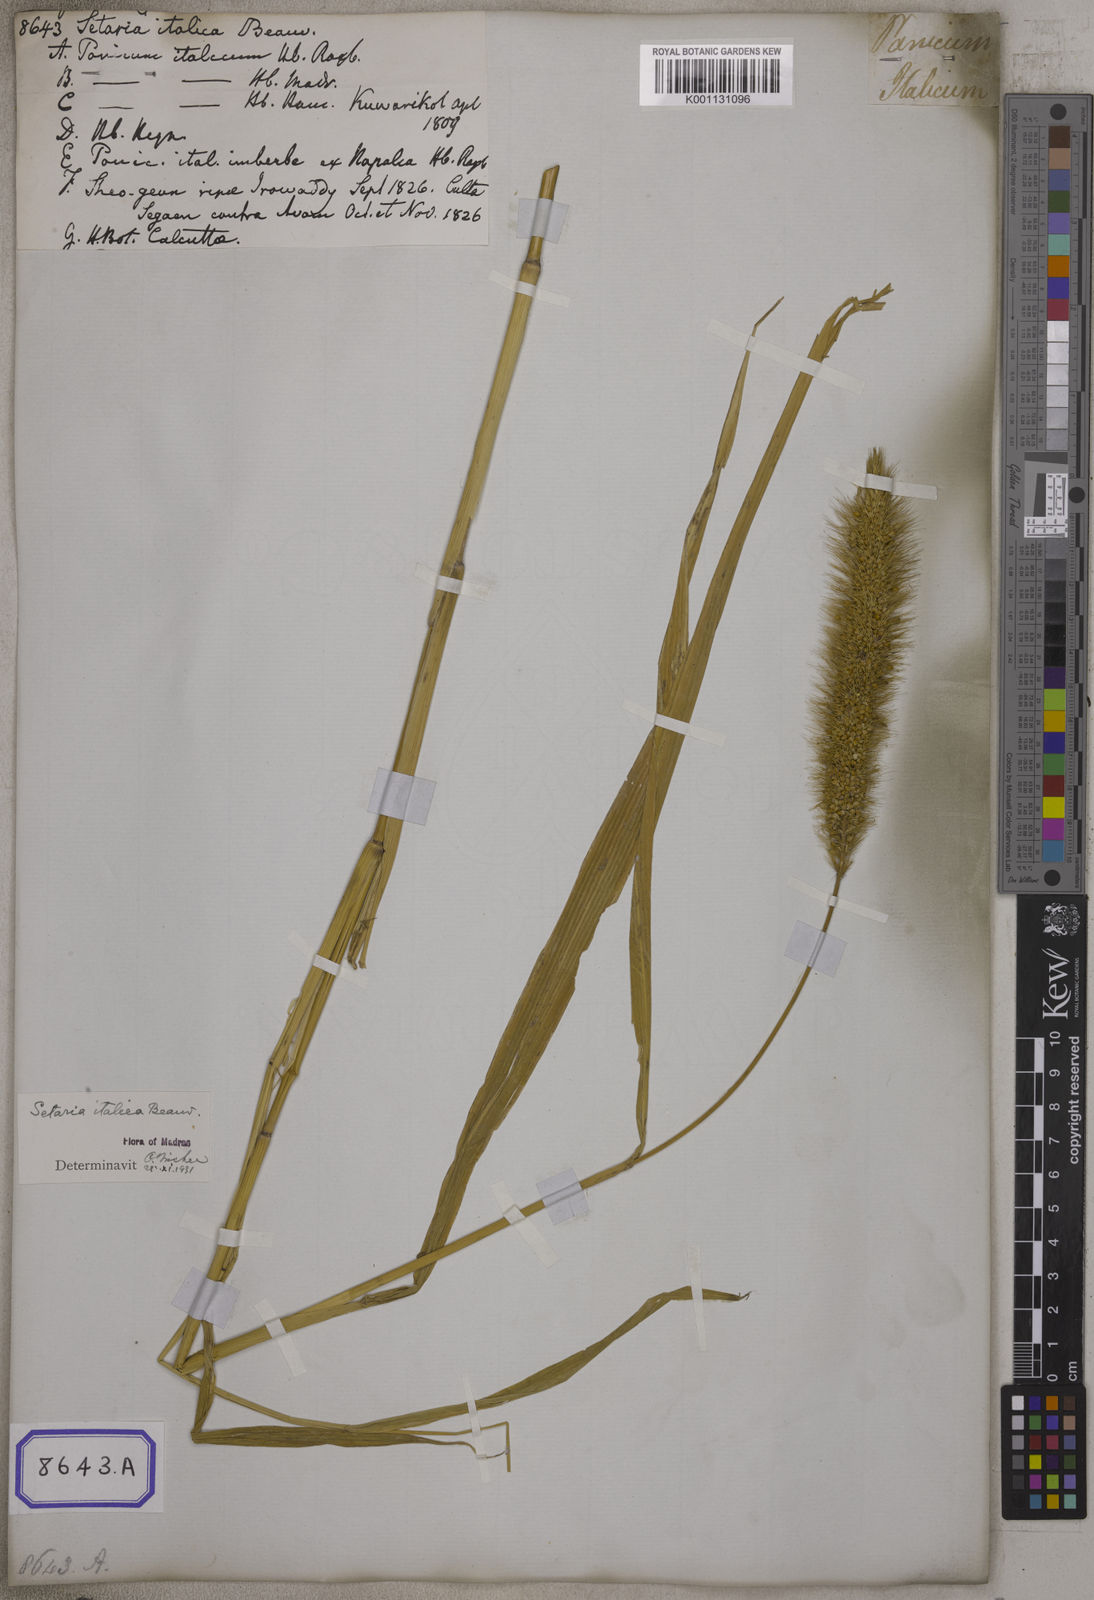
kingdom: Plantae
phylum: Tracheophyta
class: Liliopsida
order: Poales
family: Poaceae
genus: Setaria
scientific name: Setaria italica
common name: Foxtail bristle-grass
